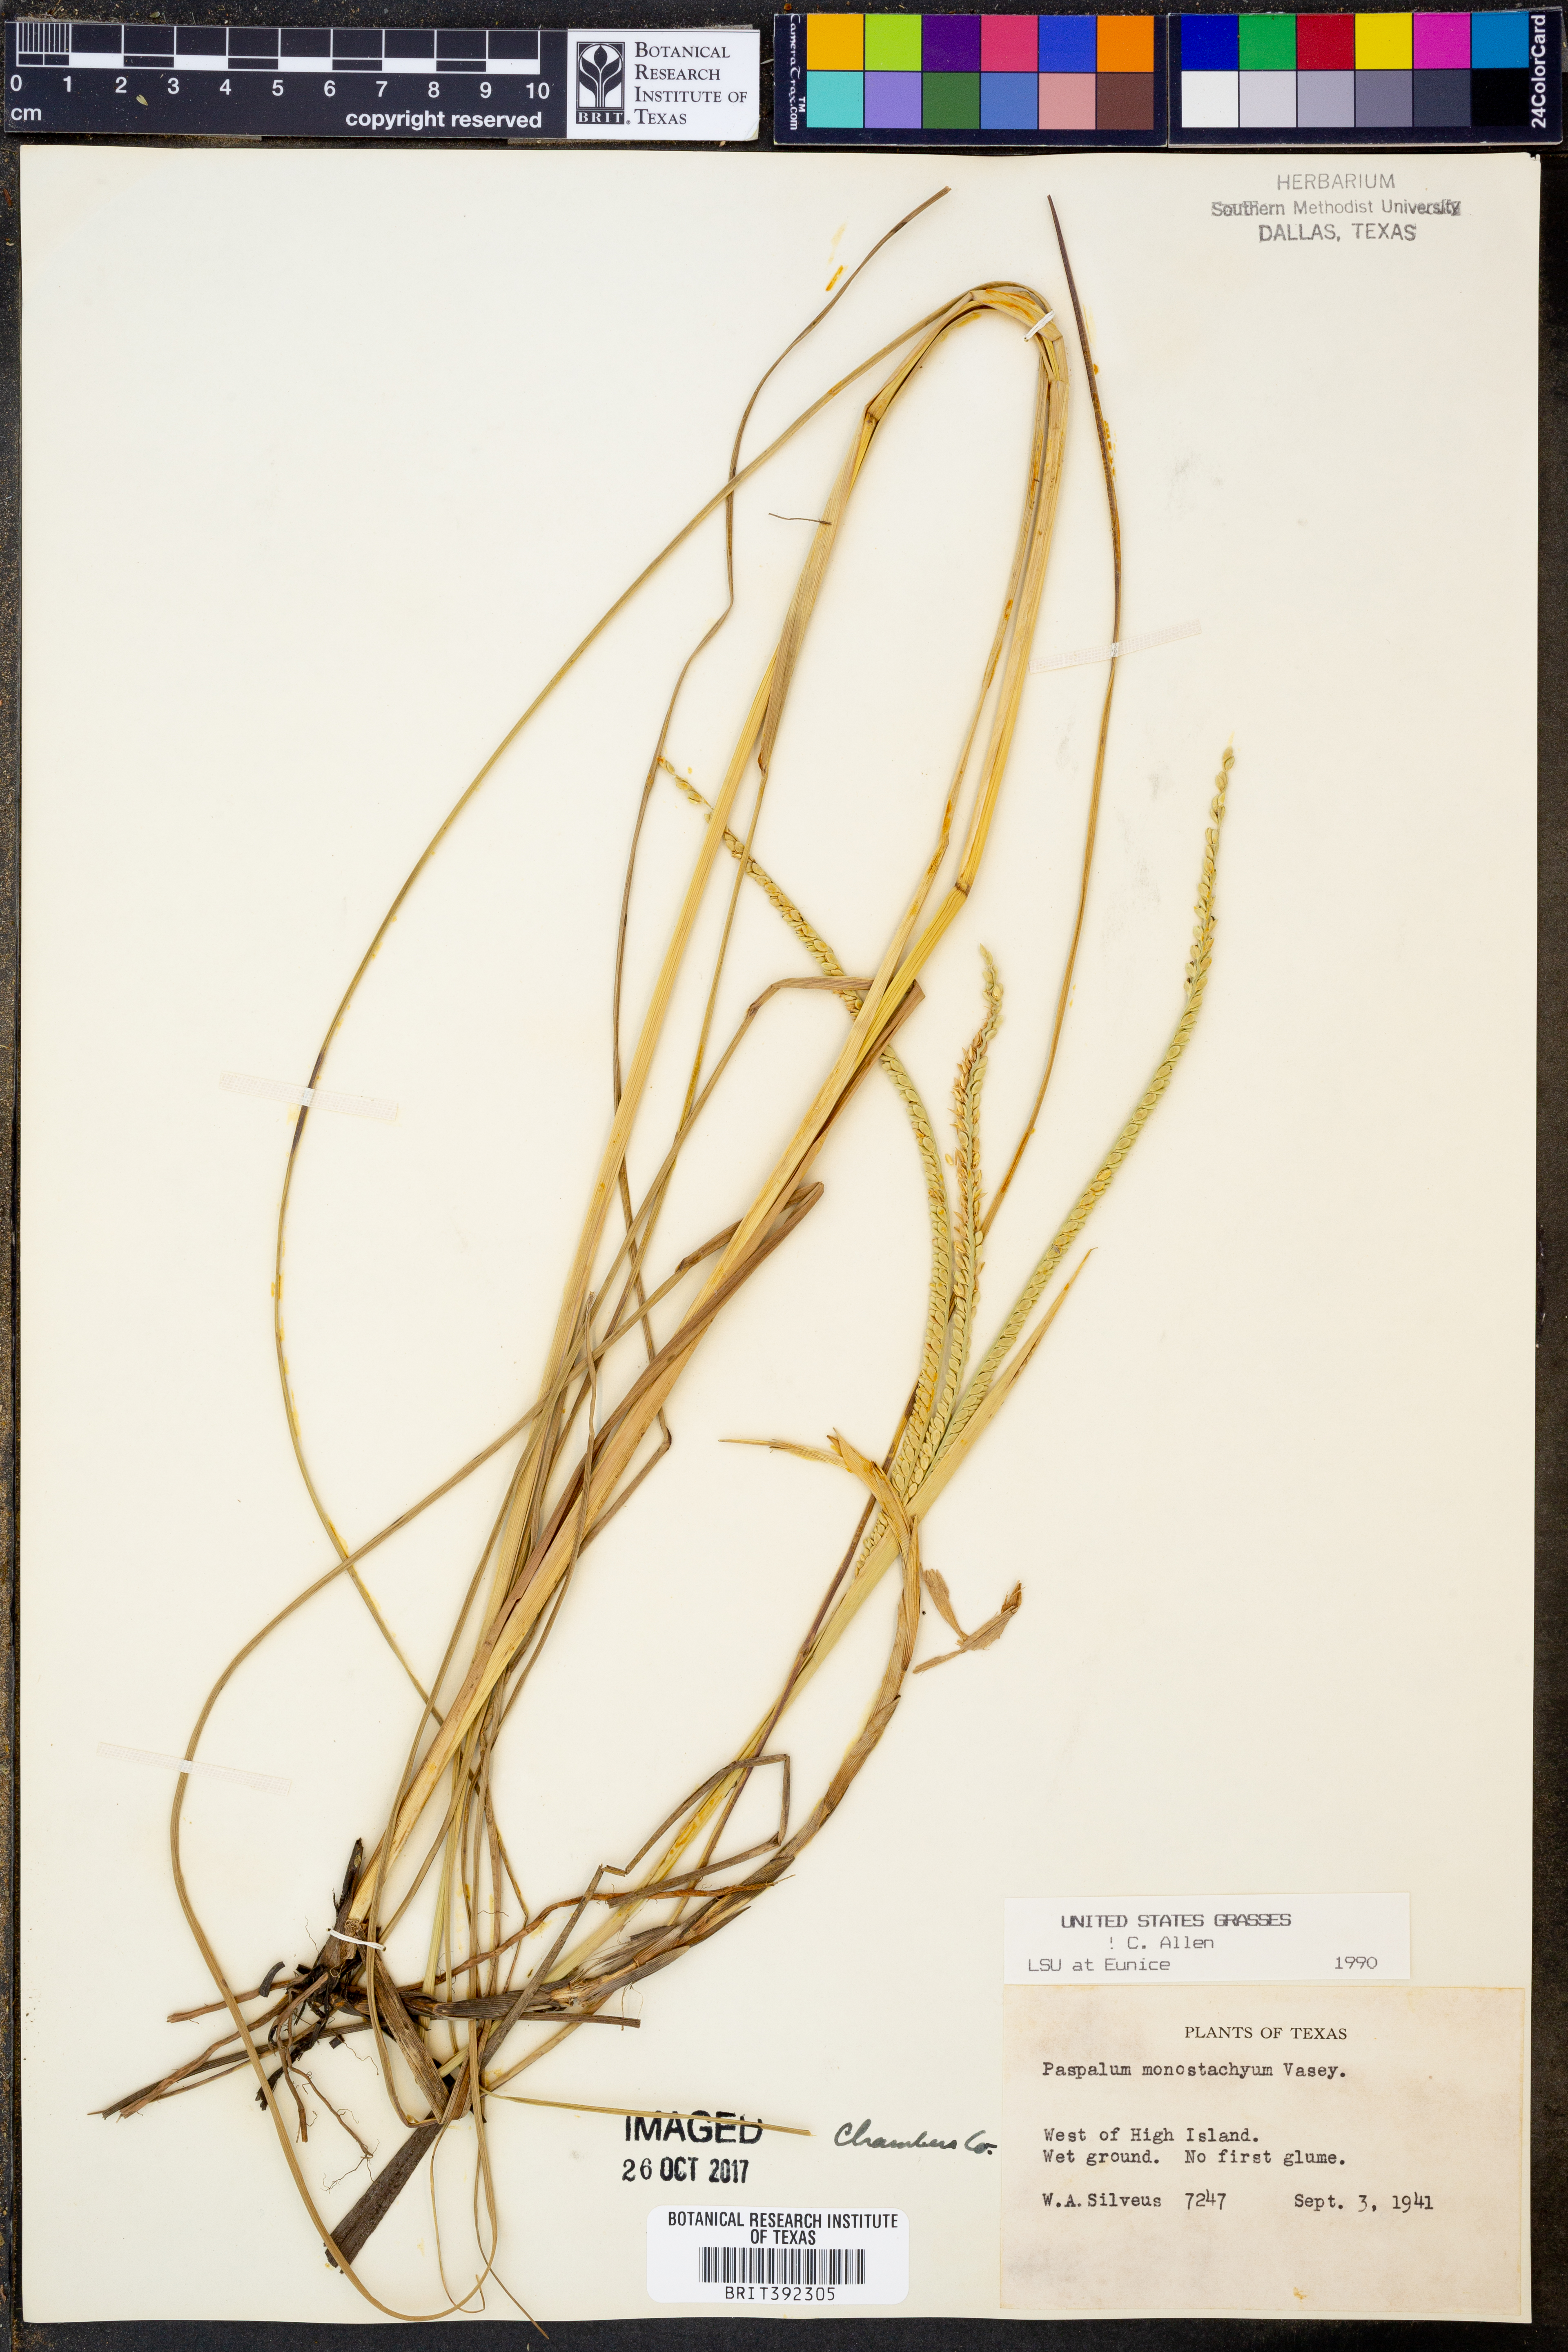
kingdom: Plantae
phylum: Tracheophyta
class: Liliopsida
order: Poales
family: Poaceae
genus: Paspalum
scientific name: Paspalum monostachyum
